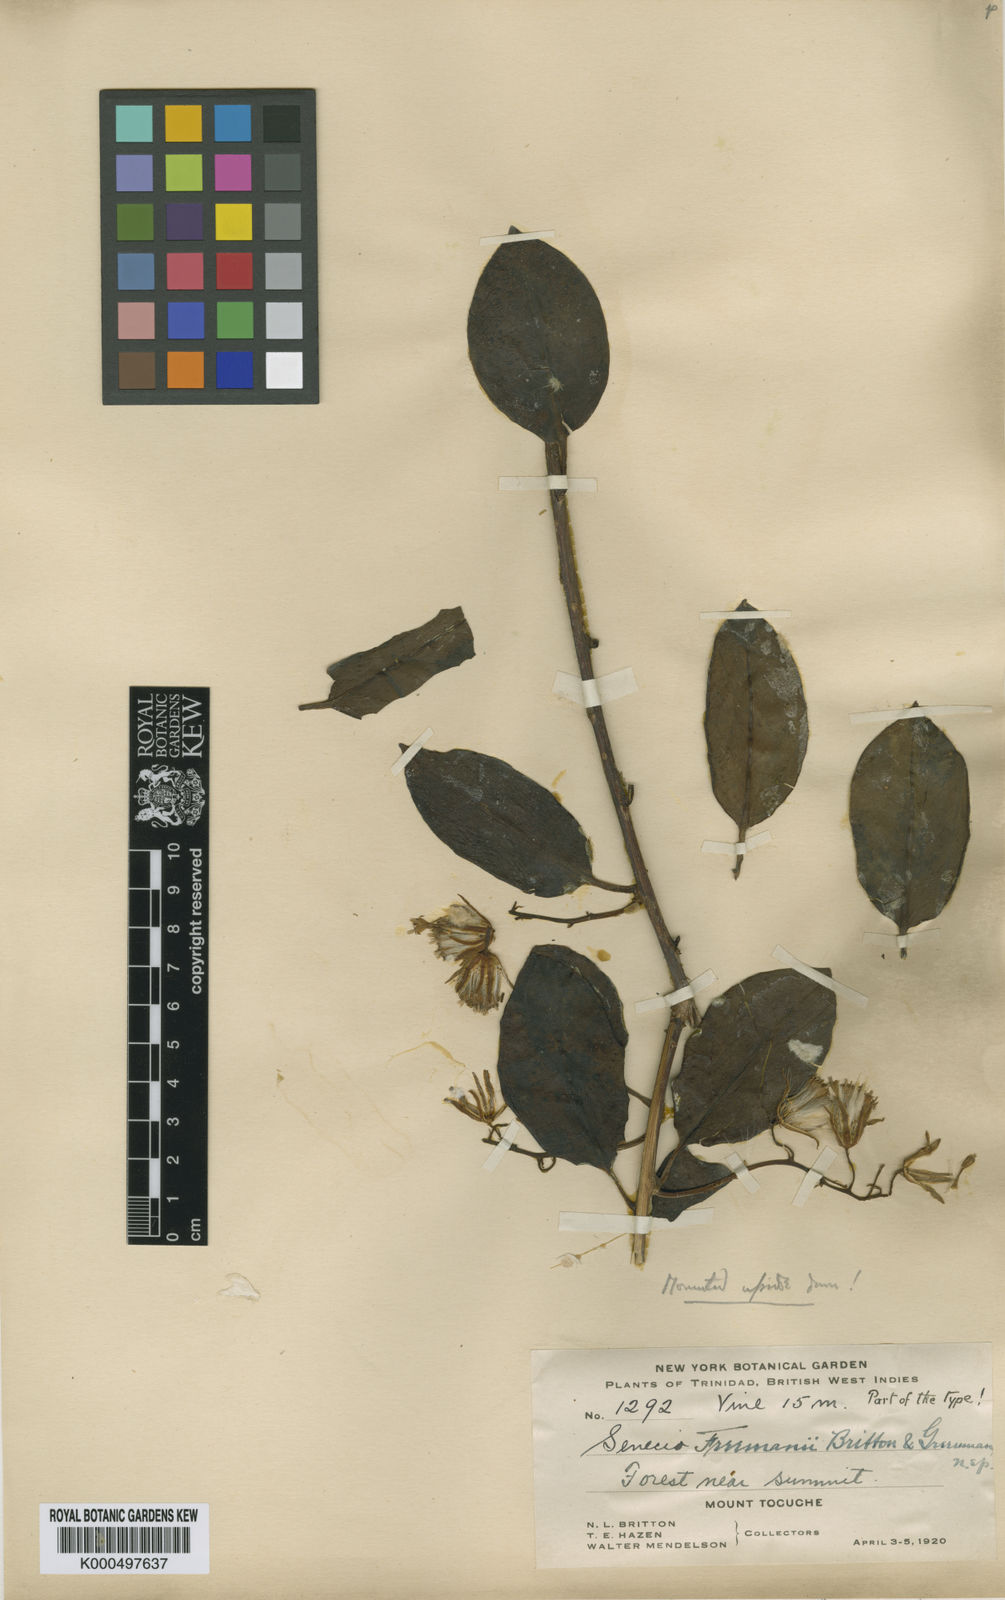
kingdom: Plantae
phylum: Tracheophyta
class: Magnoliopsida
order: Asterales
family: Asteraceae
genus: Pentacalia
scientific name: Pentacalia freemanii
